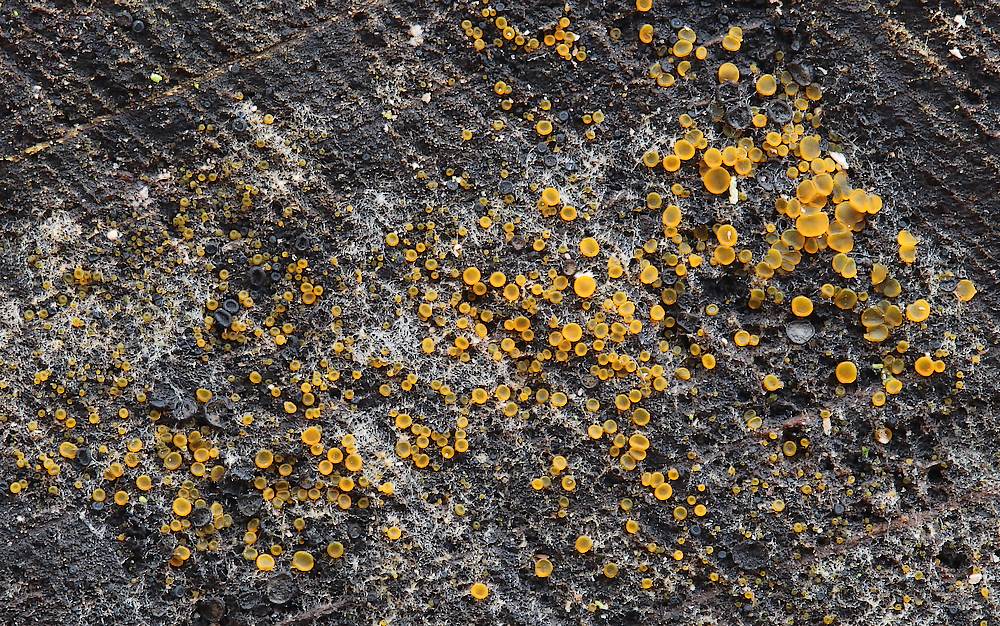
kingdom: Fungi
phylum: Ascomycota
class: Orbiliomycetes
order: Orbiliales
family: Orbiliaceae
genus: Orbilia
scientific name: Orbilia
